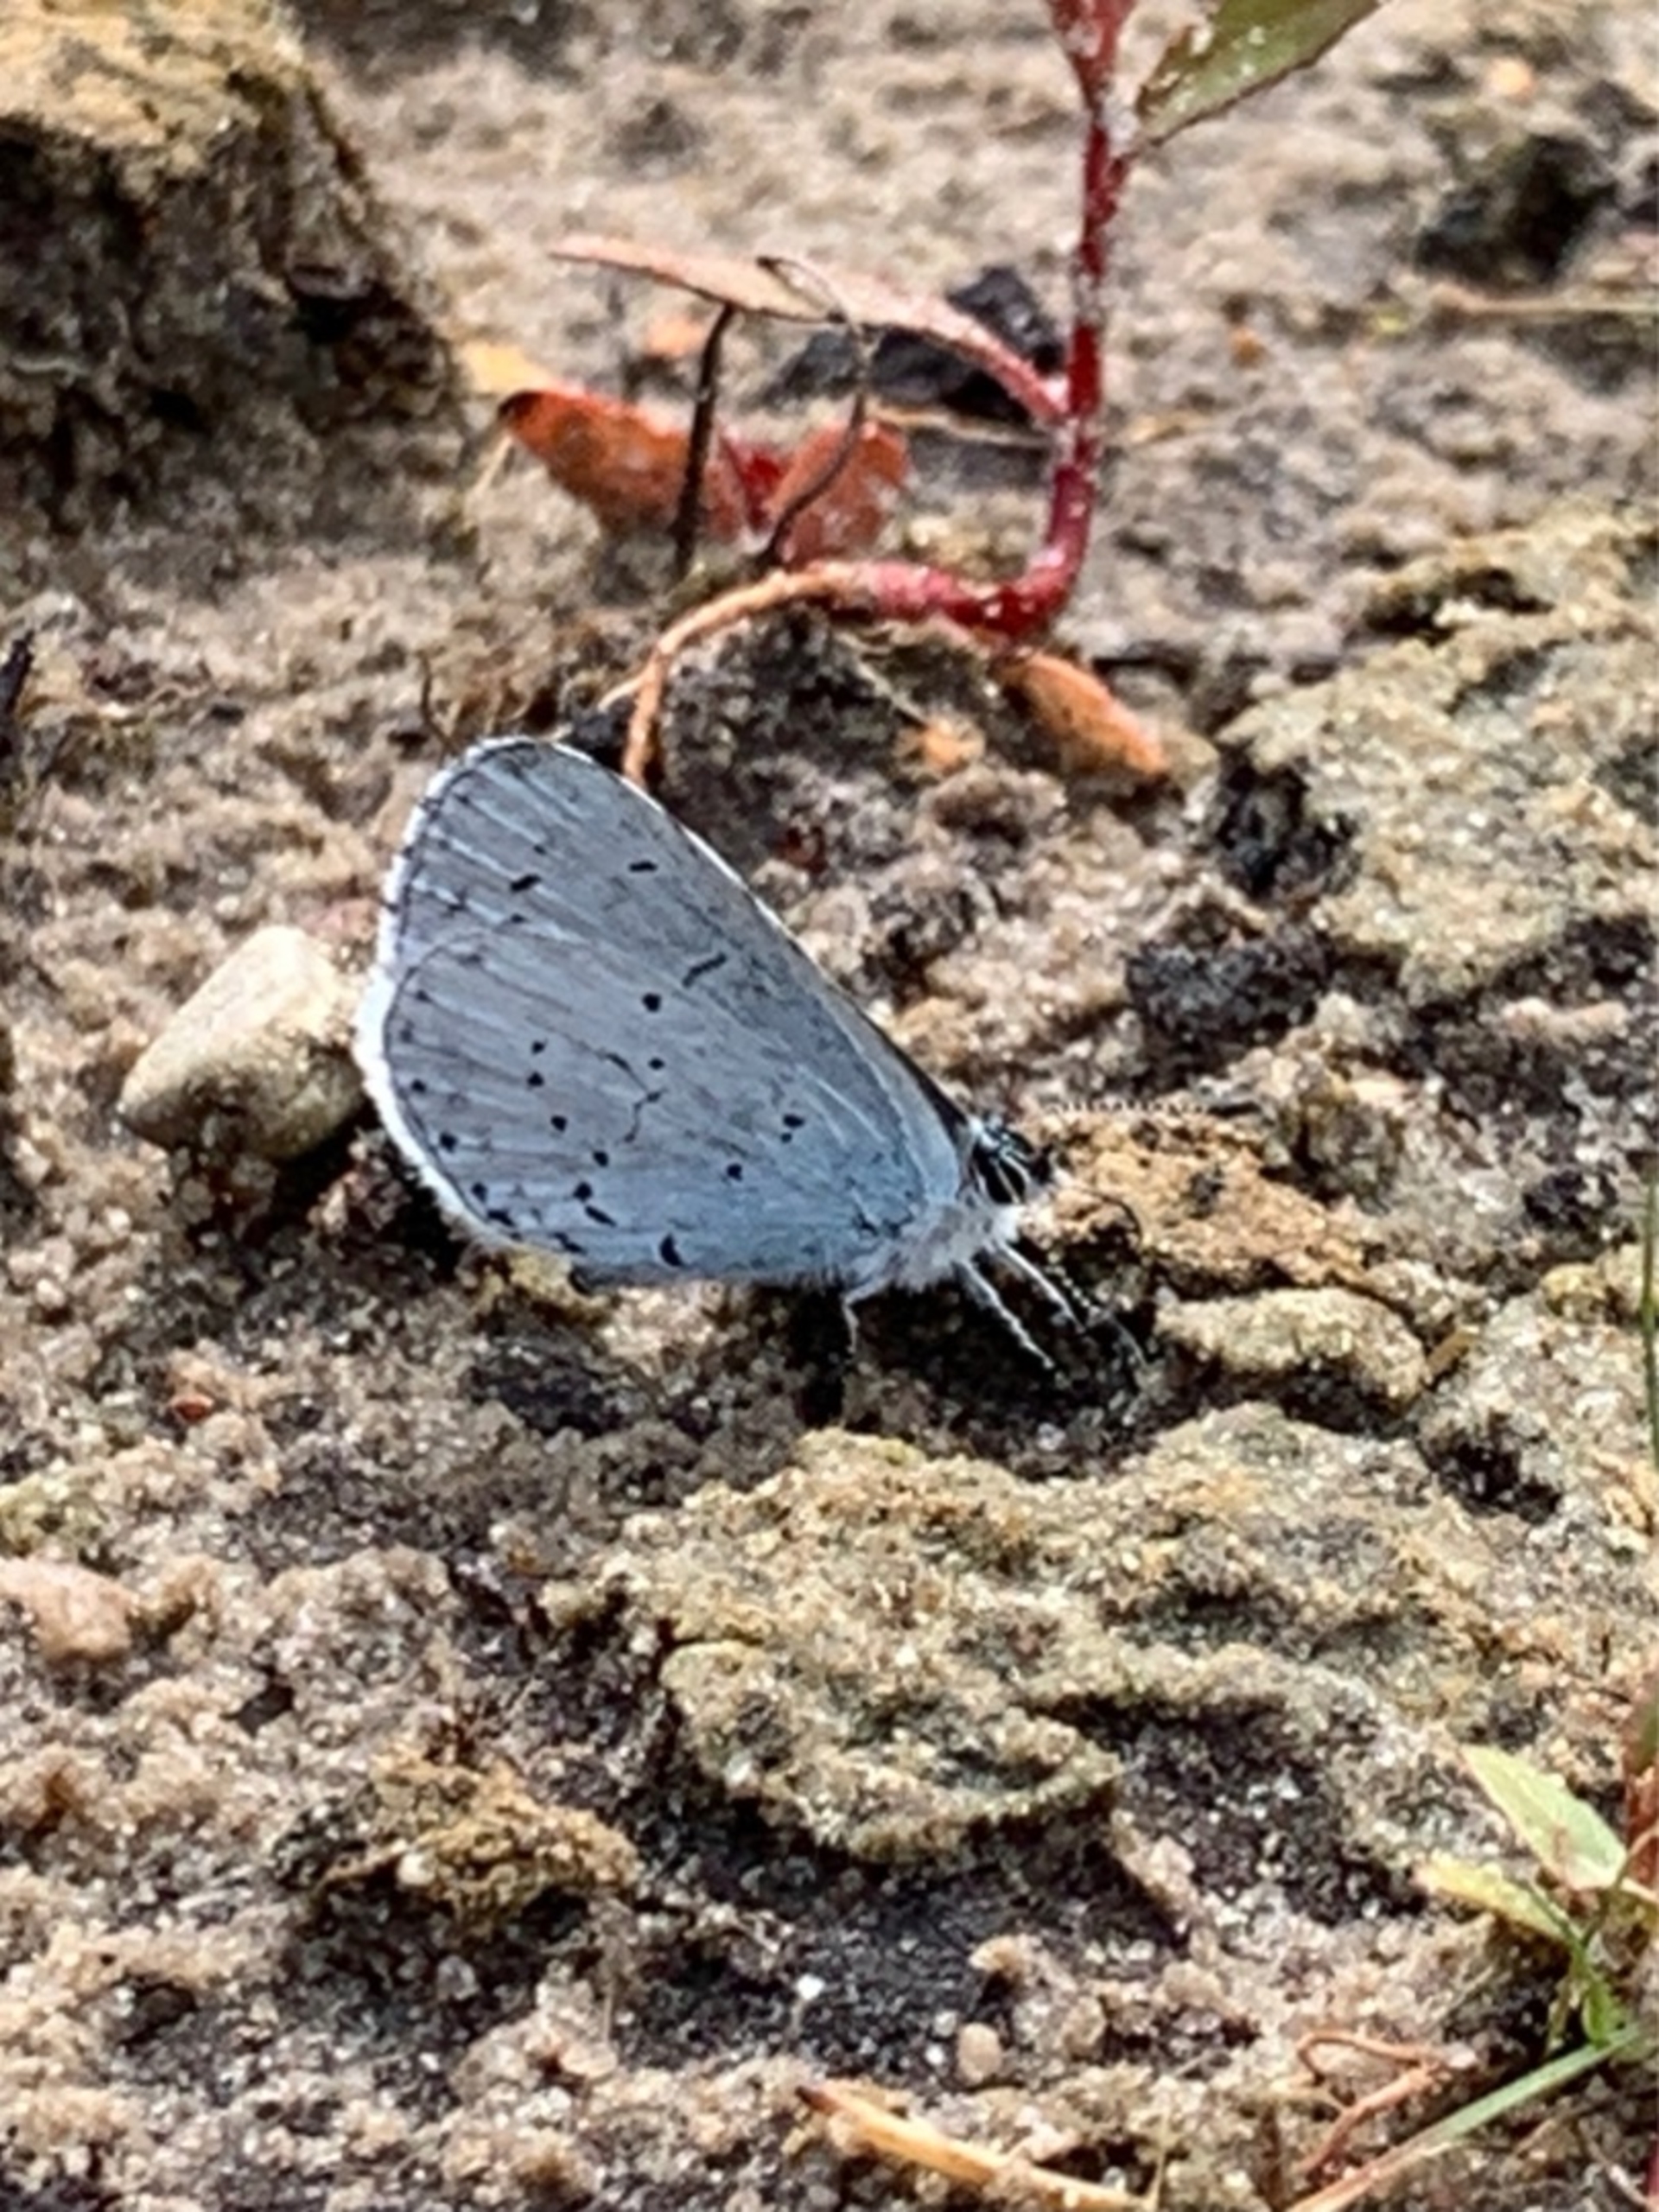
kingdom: Animalia
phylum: Arthropoda
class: Insecta
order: Lepidoptera
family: Lycaenidae
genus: Celastrina
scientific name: Celastrina argiolus
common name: Skovblåfugl
